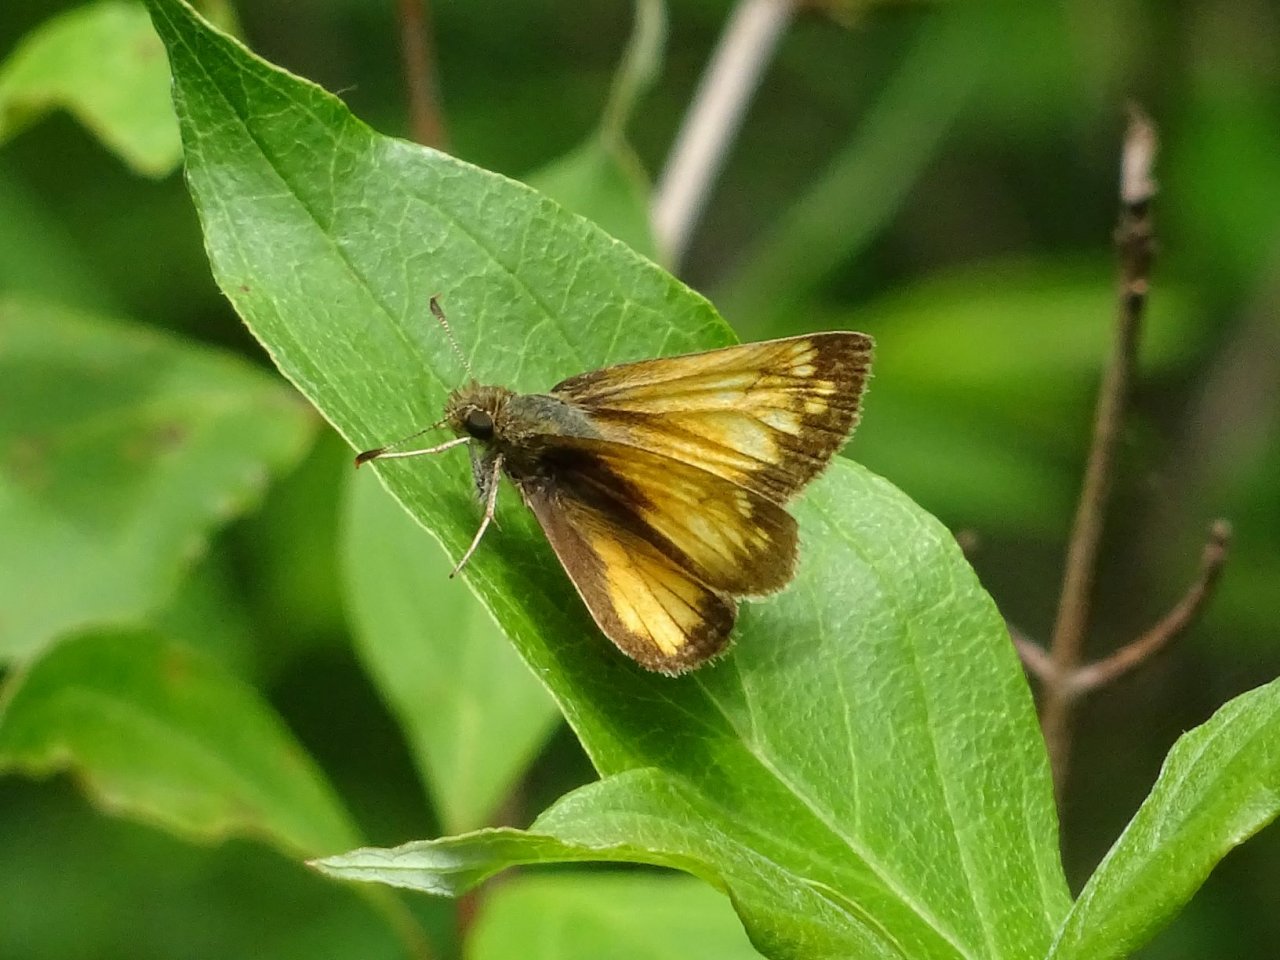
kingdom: Animalia
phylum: Arthropoda
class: Insecta
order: Lepidoptera
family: Hesperiidae
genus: Lon
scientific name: Lon hobomok
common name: Hobomok Skipper
